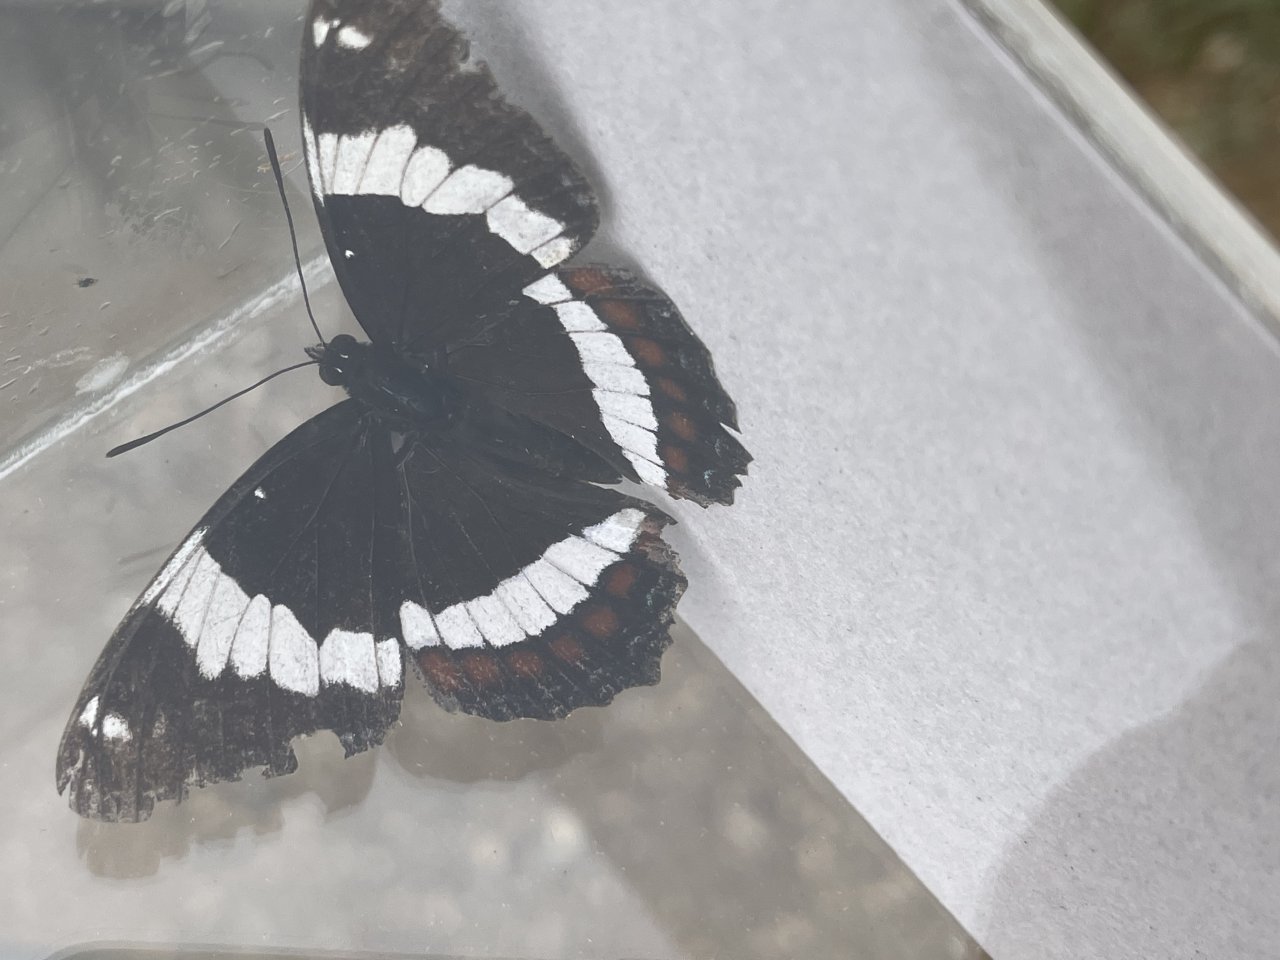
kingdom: Animalia
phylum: Arthropoda
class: Insecta
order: Lepidoptera
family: Nymphalidae
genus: Limenitis
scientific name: Limenitis arthemis
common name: Red-spotted Admiral
